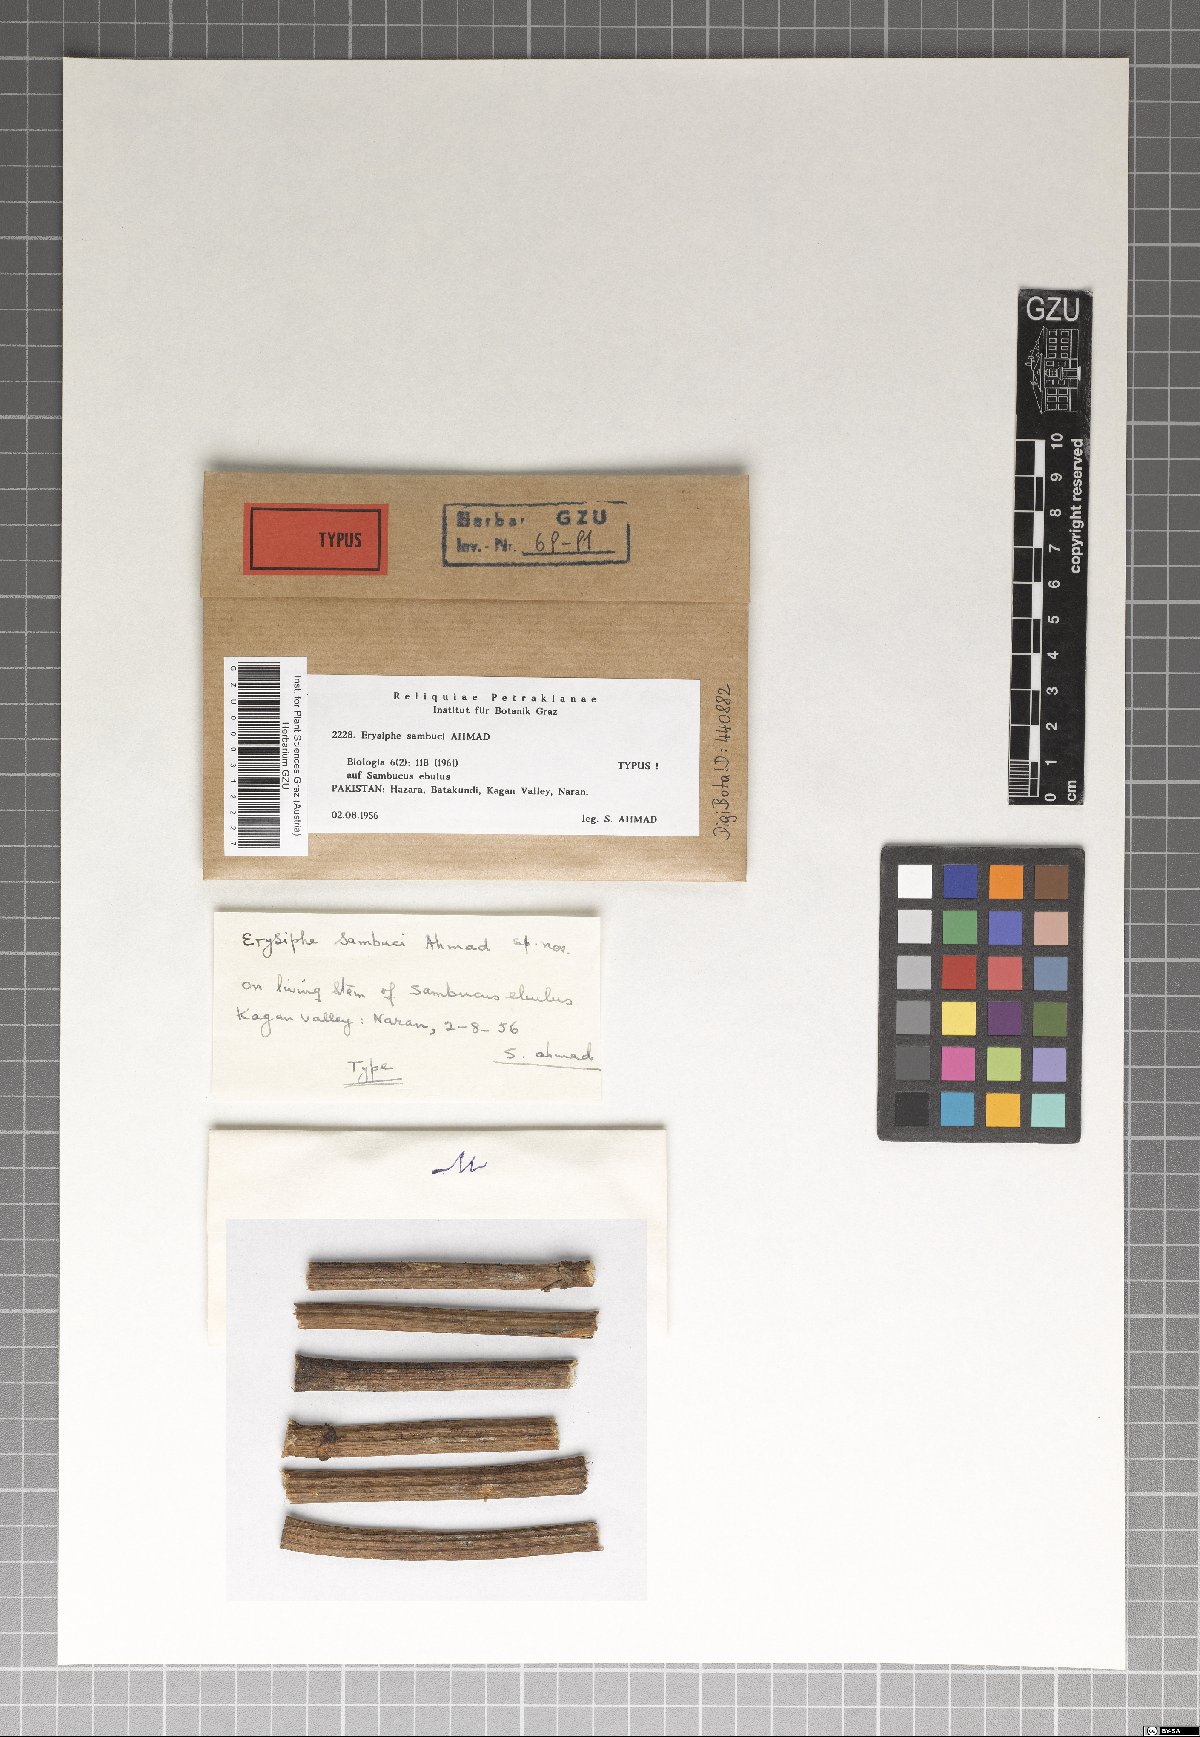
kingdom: Fungi
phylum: Ascomycota
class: Leotiomycetes
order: Helotiales
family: Erysiphaceae
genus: Erysiphe
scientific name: Erysiphe sambuci
